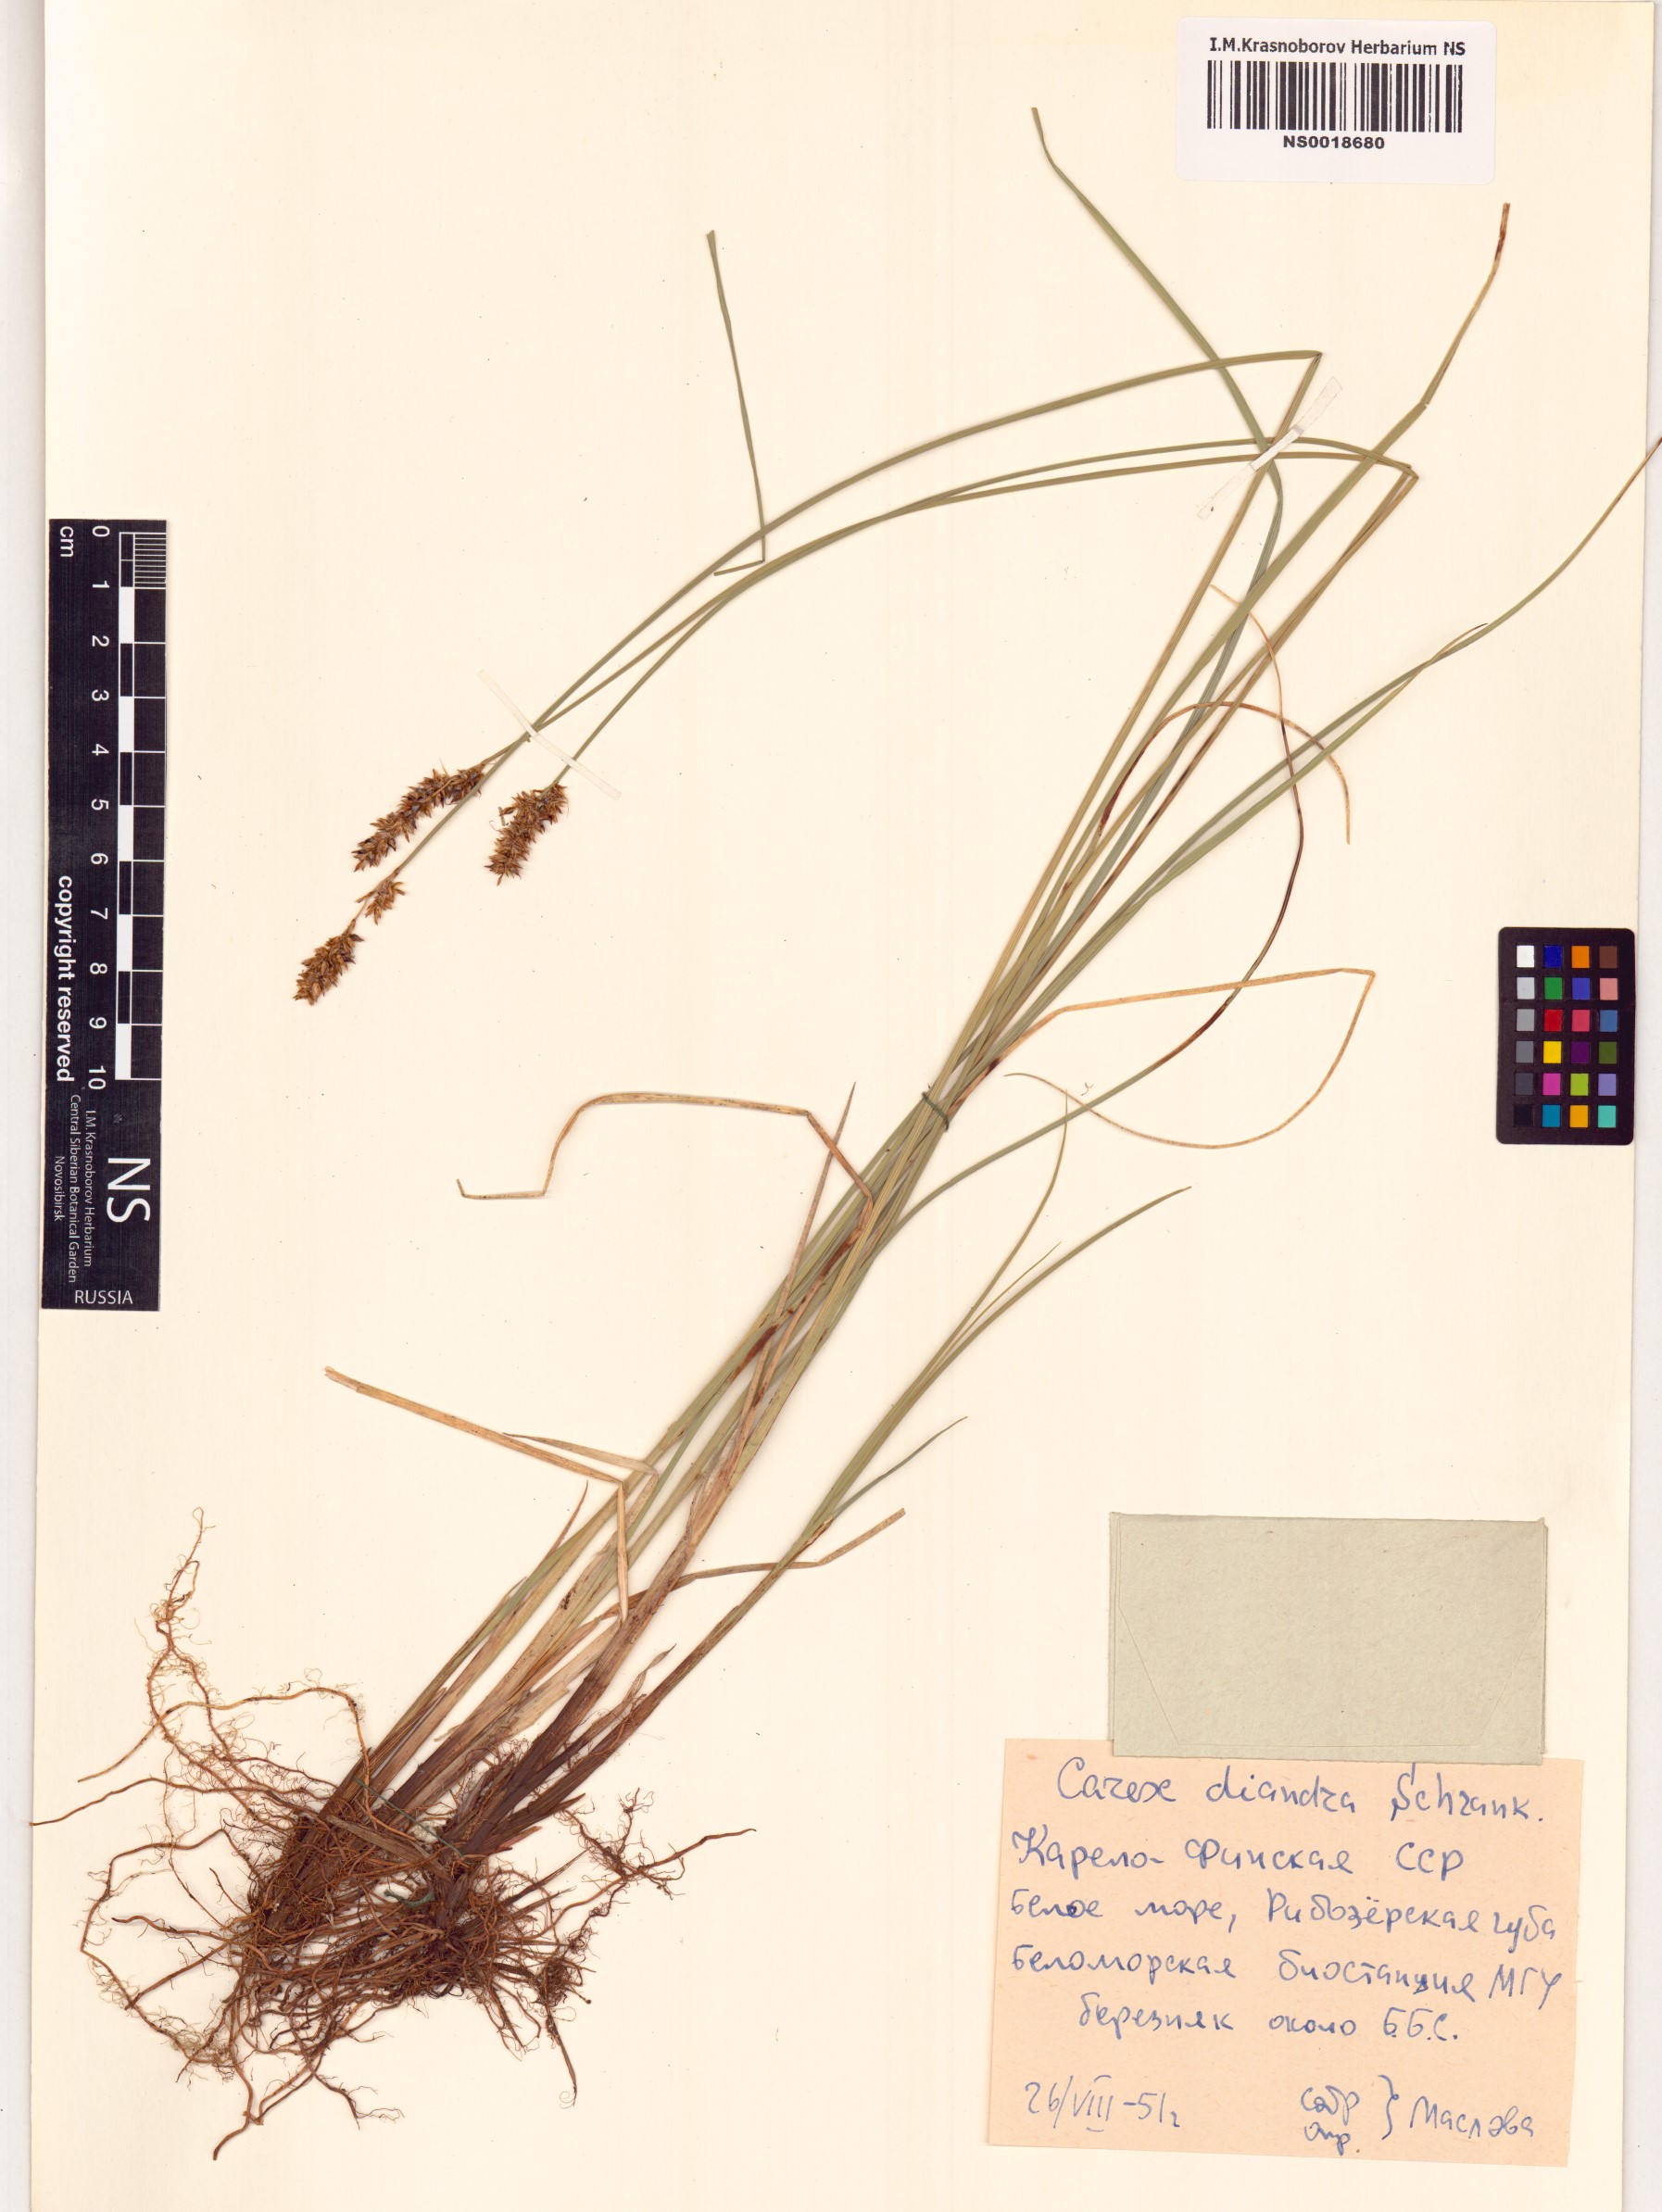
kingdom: Plantae
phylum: Tracheophyta
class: Liliopsida
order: Poales
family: Cyperaceae
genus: Carex
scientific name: Carex diandra
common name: Lesser tussock-sedge
